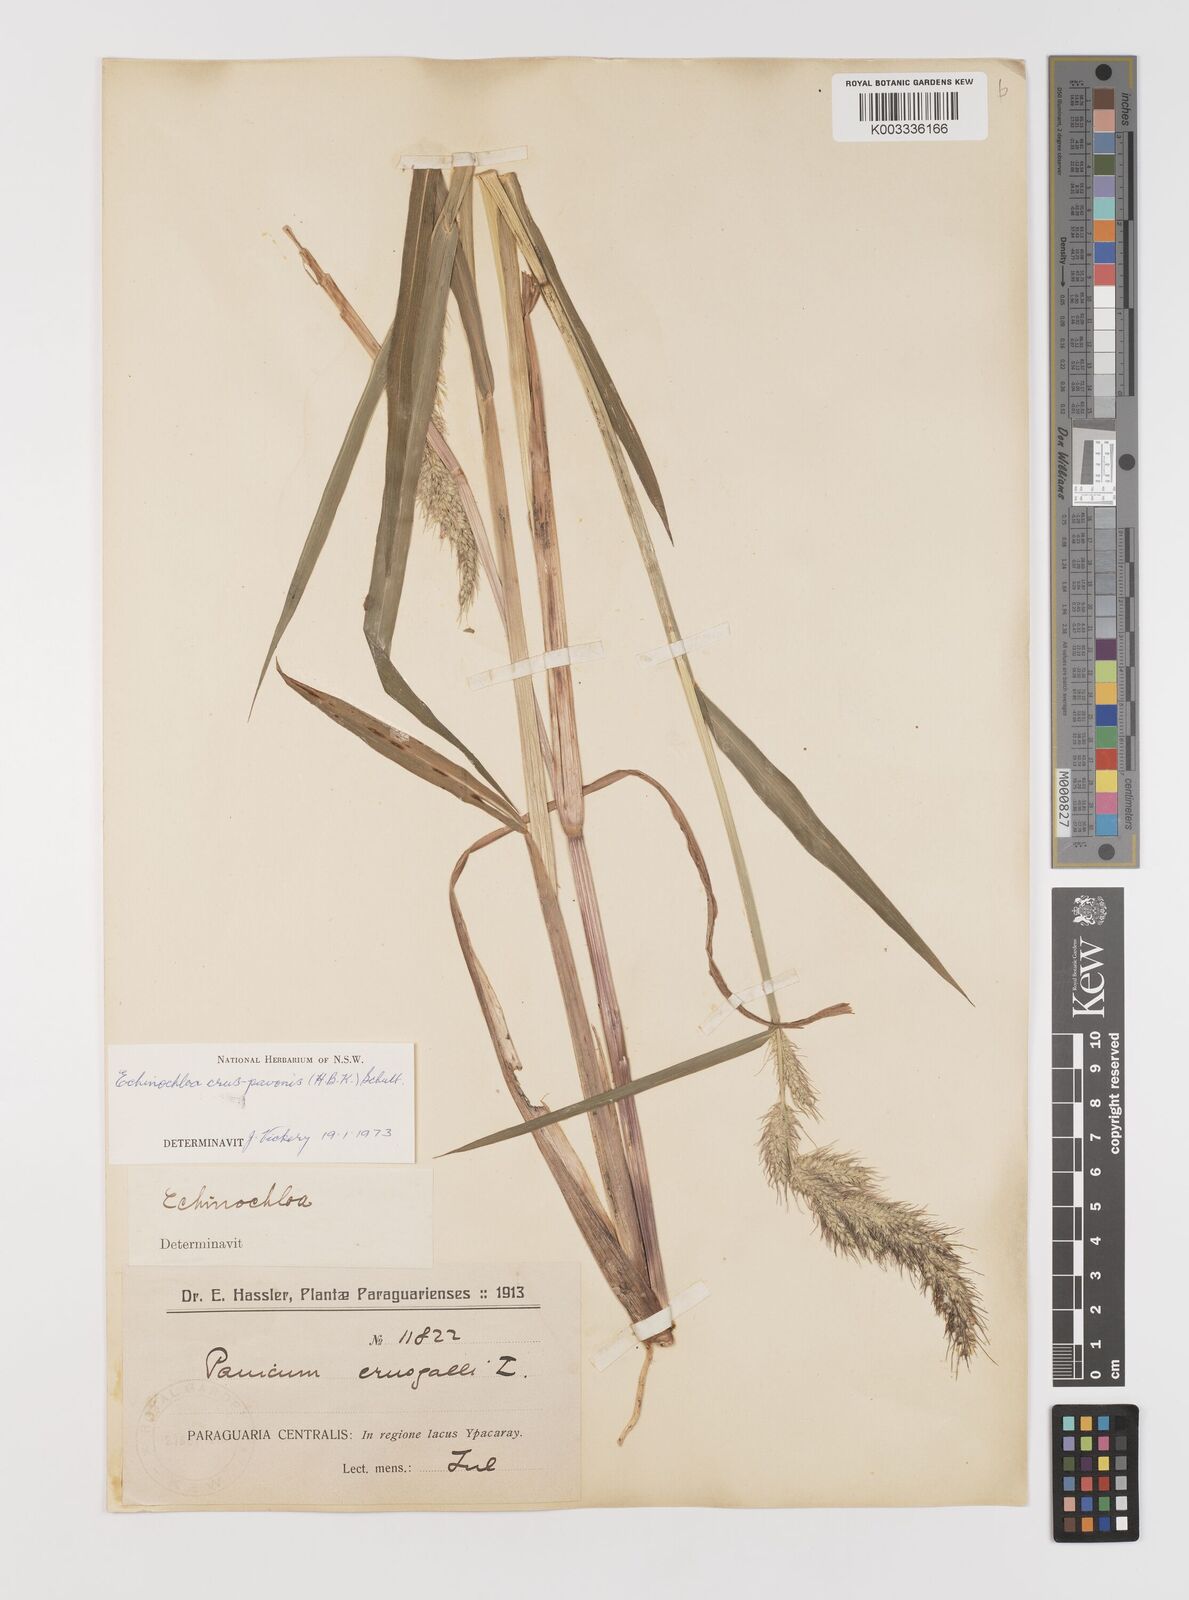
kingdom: Plantae
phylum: Tracheophyta
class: Liliopsida
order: Poales
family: Poaceae
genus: Echinochloa
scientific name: Echinochloa crus-pavonis
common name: Gulf cockspur grass
